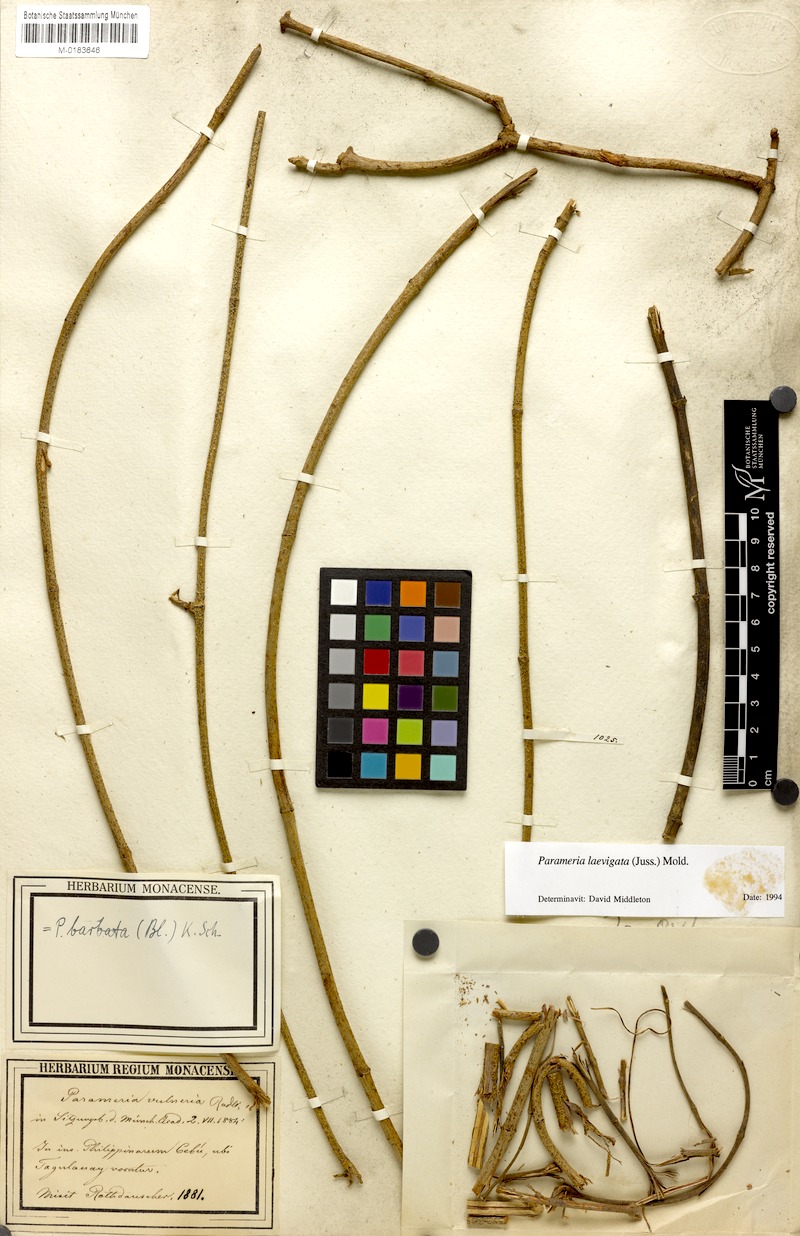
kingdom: Plantae
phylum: Tracheophyta
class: Magnoliopsida
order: Gentianales
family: Apocynaceae
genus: Urceola
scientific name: Urceola laevigata
